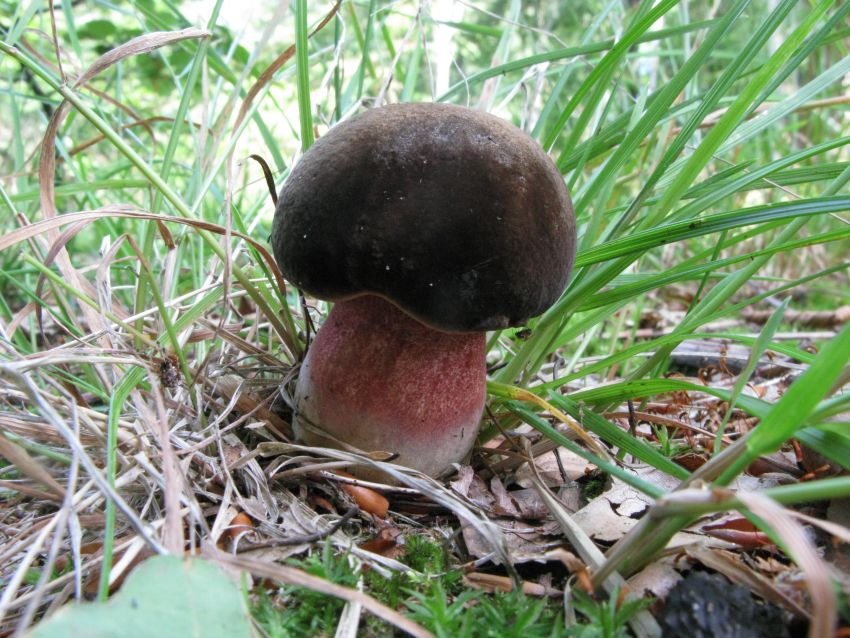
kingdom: Fungi
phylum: Basidiomycota
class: Agaricomycetes
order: Boletales
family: Boletaceae
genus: Neoboletus
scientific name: Neoboletus erythropus
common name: punktstokket indigorørhat
